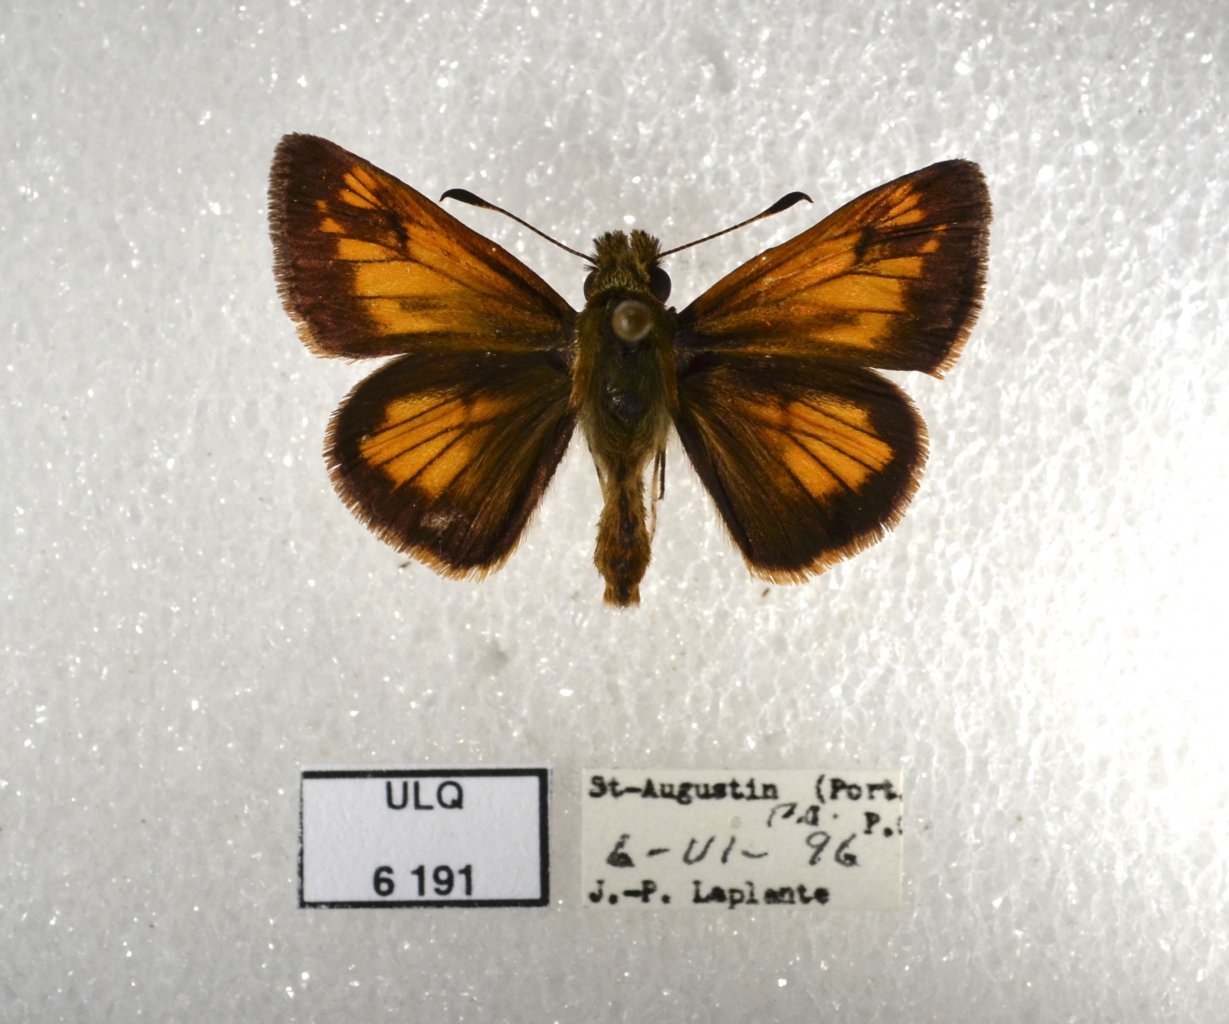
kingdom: Animalia
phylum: Arthropoda
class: Insecta
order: Lepidoptera
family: Hesperiidae
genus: Lon
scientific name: Lon hobomok
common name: Hobomok Skipper
